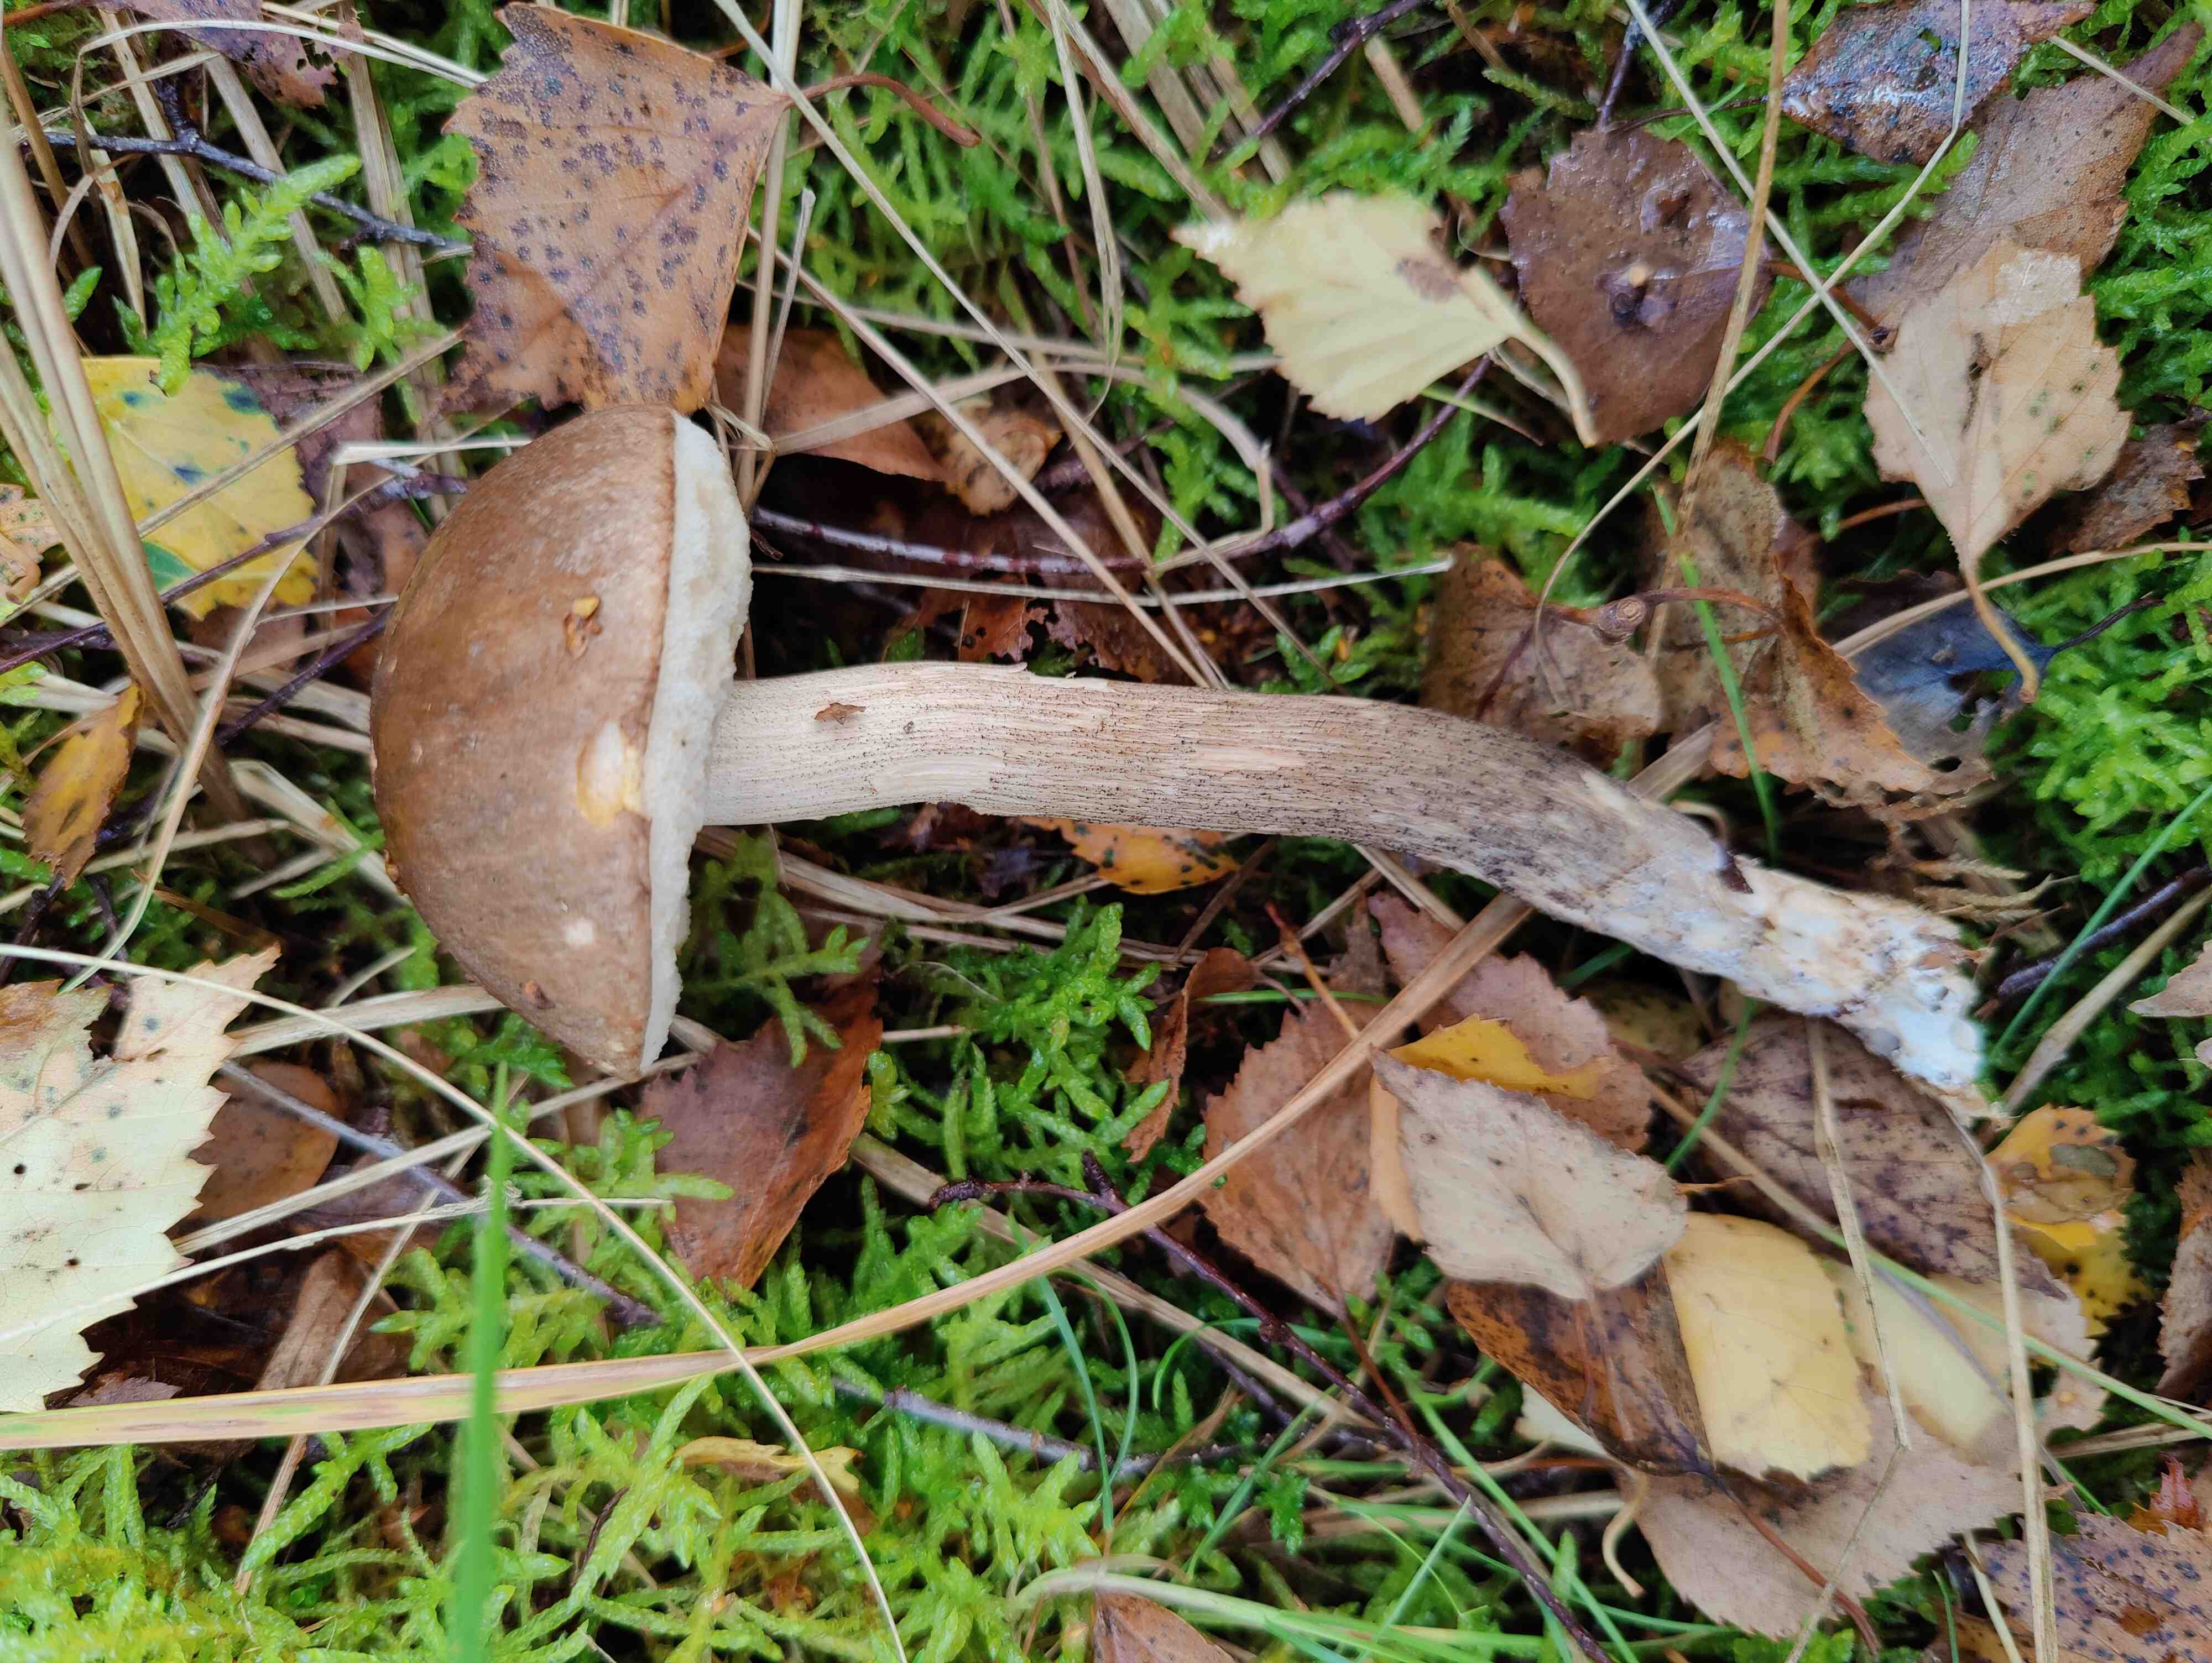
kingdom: Fungi
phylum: Basidiomycota
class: Agaricomycetes
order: Boletales
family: Boletaceae
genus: Leccinum
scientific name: Leccinum scabrum
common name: brun skælrørhat
